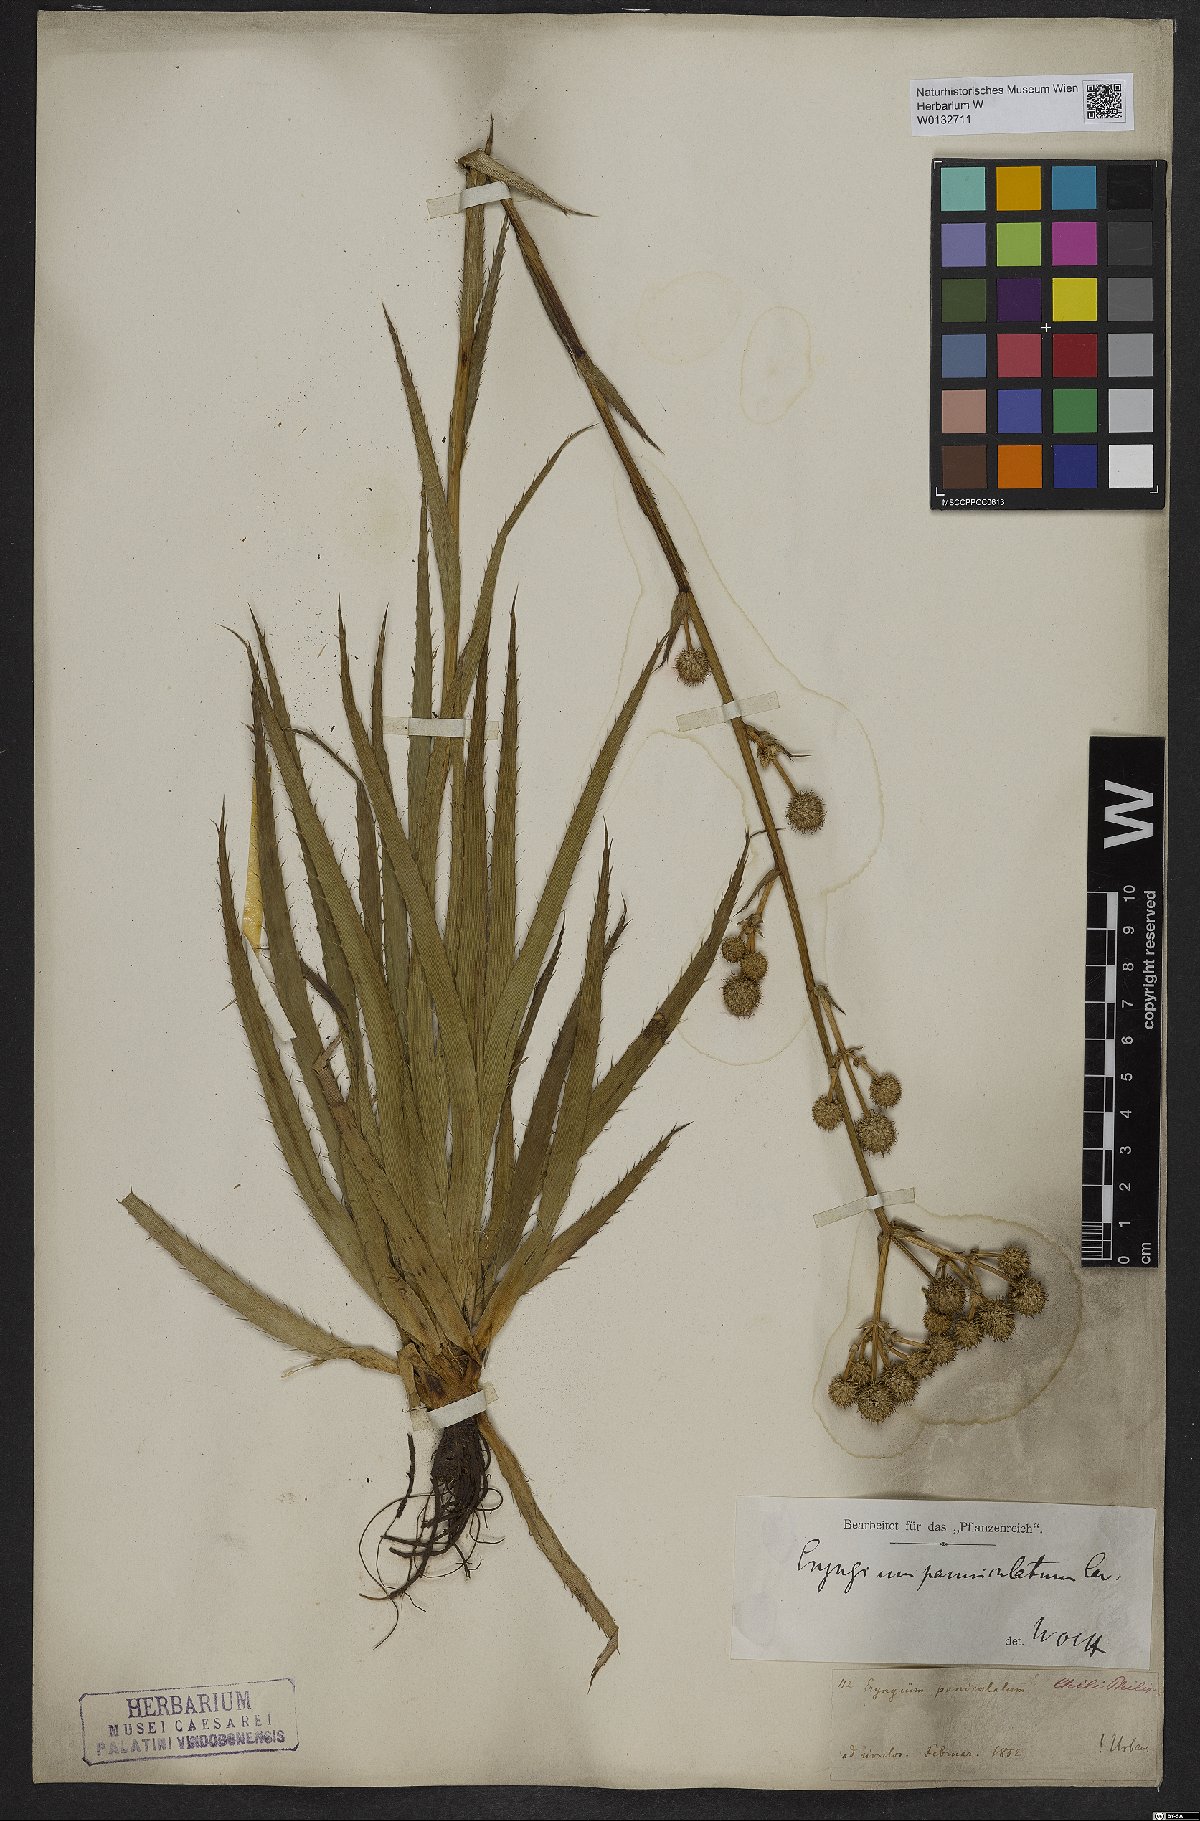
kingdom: Plantae
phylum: Tracheophyta
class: Magnoliopsida
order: Apiales
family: Apiaceae
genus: Eryngium
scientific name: Eryngium humboldtii
